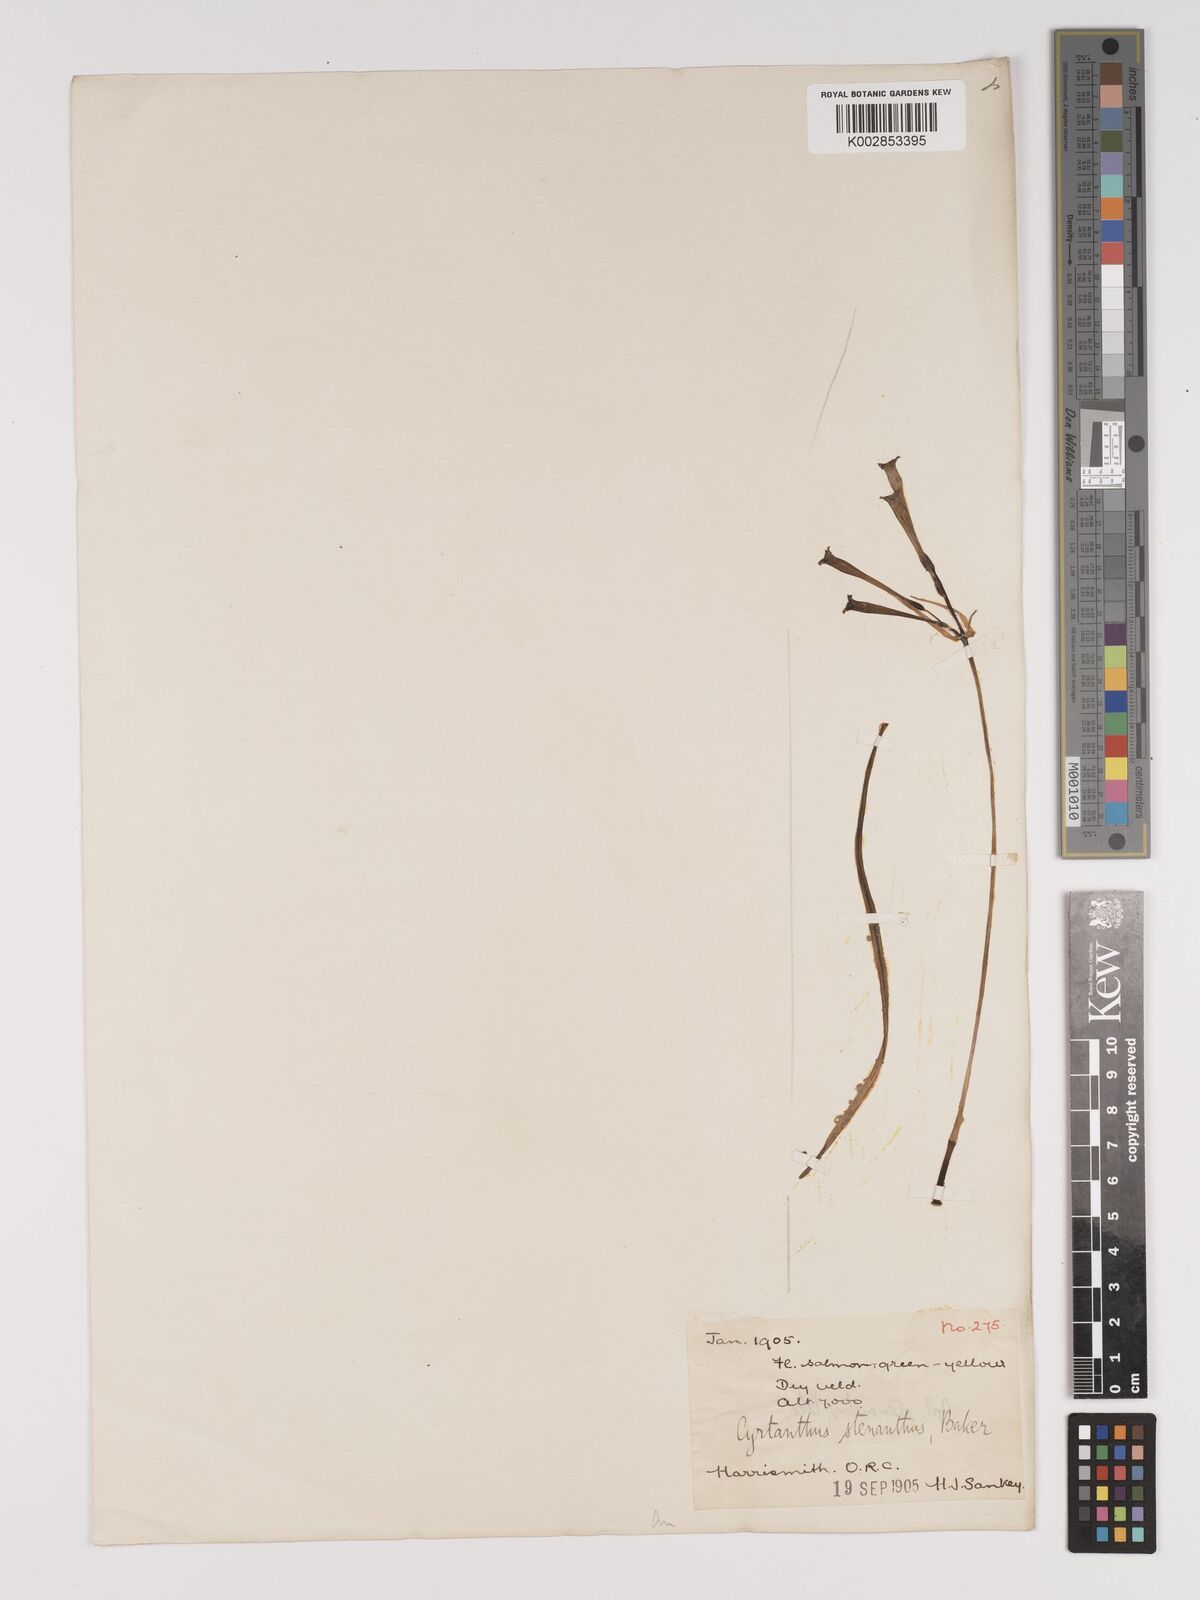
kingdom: Plantae
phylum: Tracheophyta
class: Liliopsida
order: Asparagales
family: Amaryllidaceae
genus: Cyrtanthus
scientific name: Cyrtanthus stenanthus
